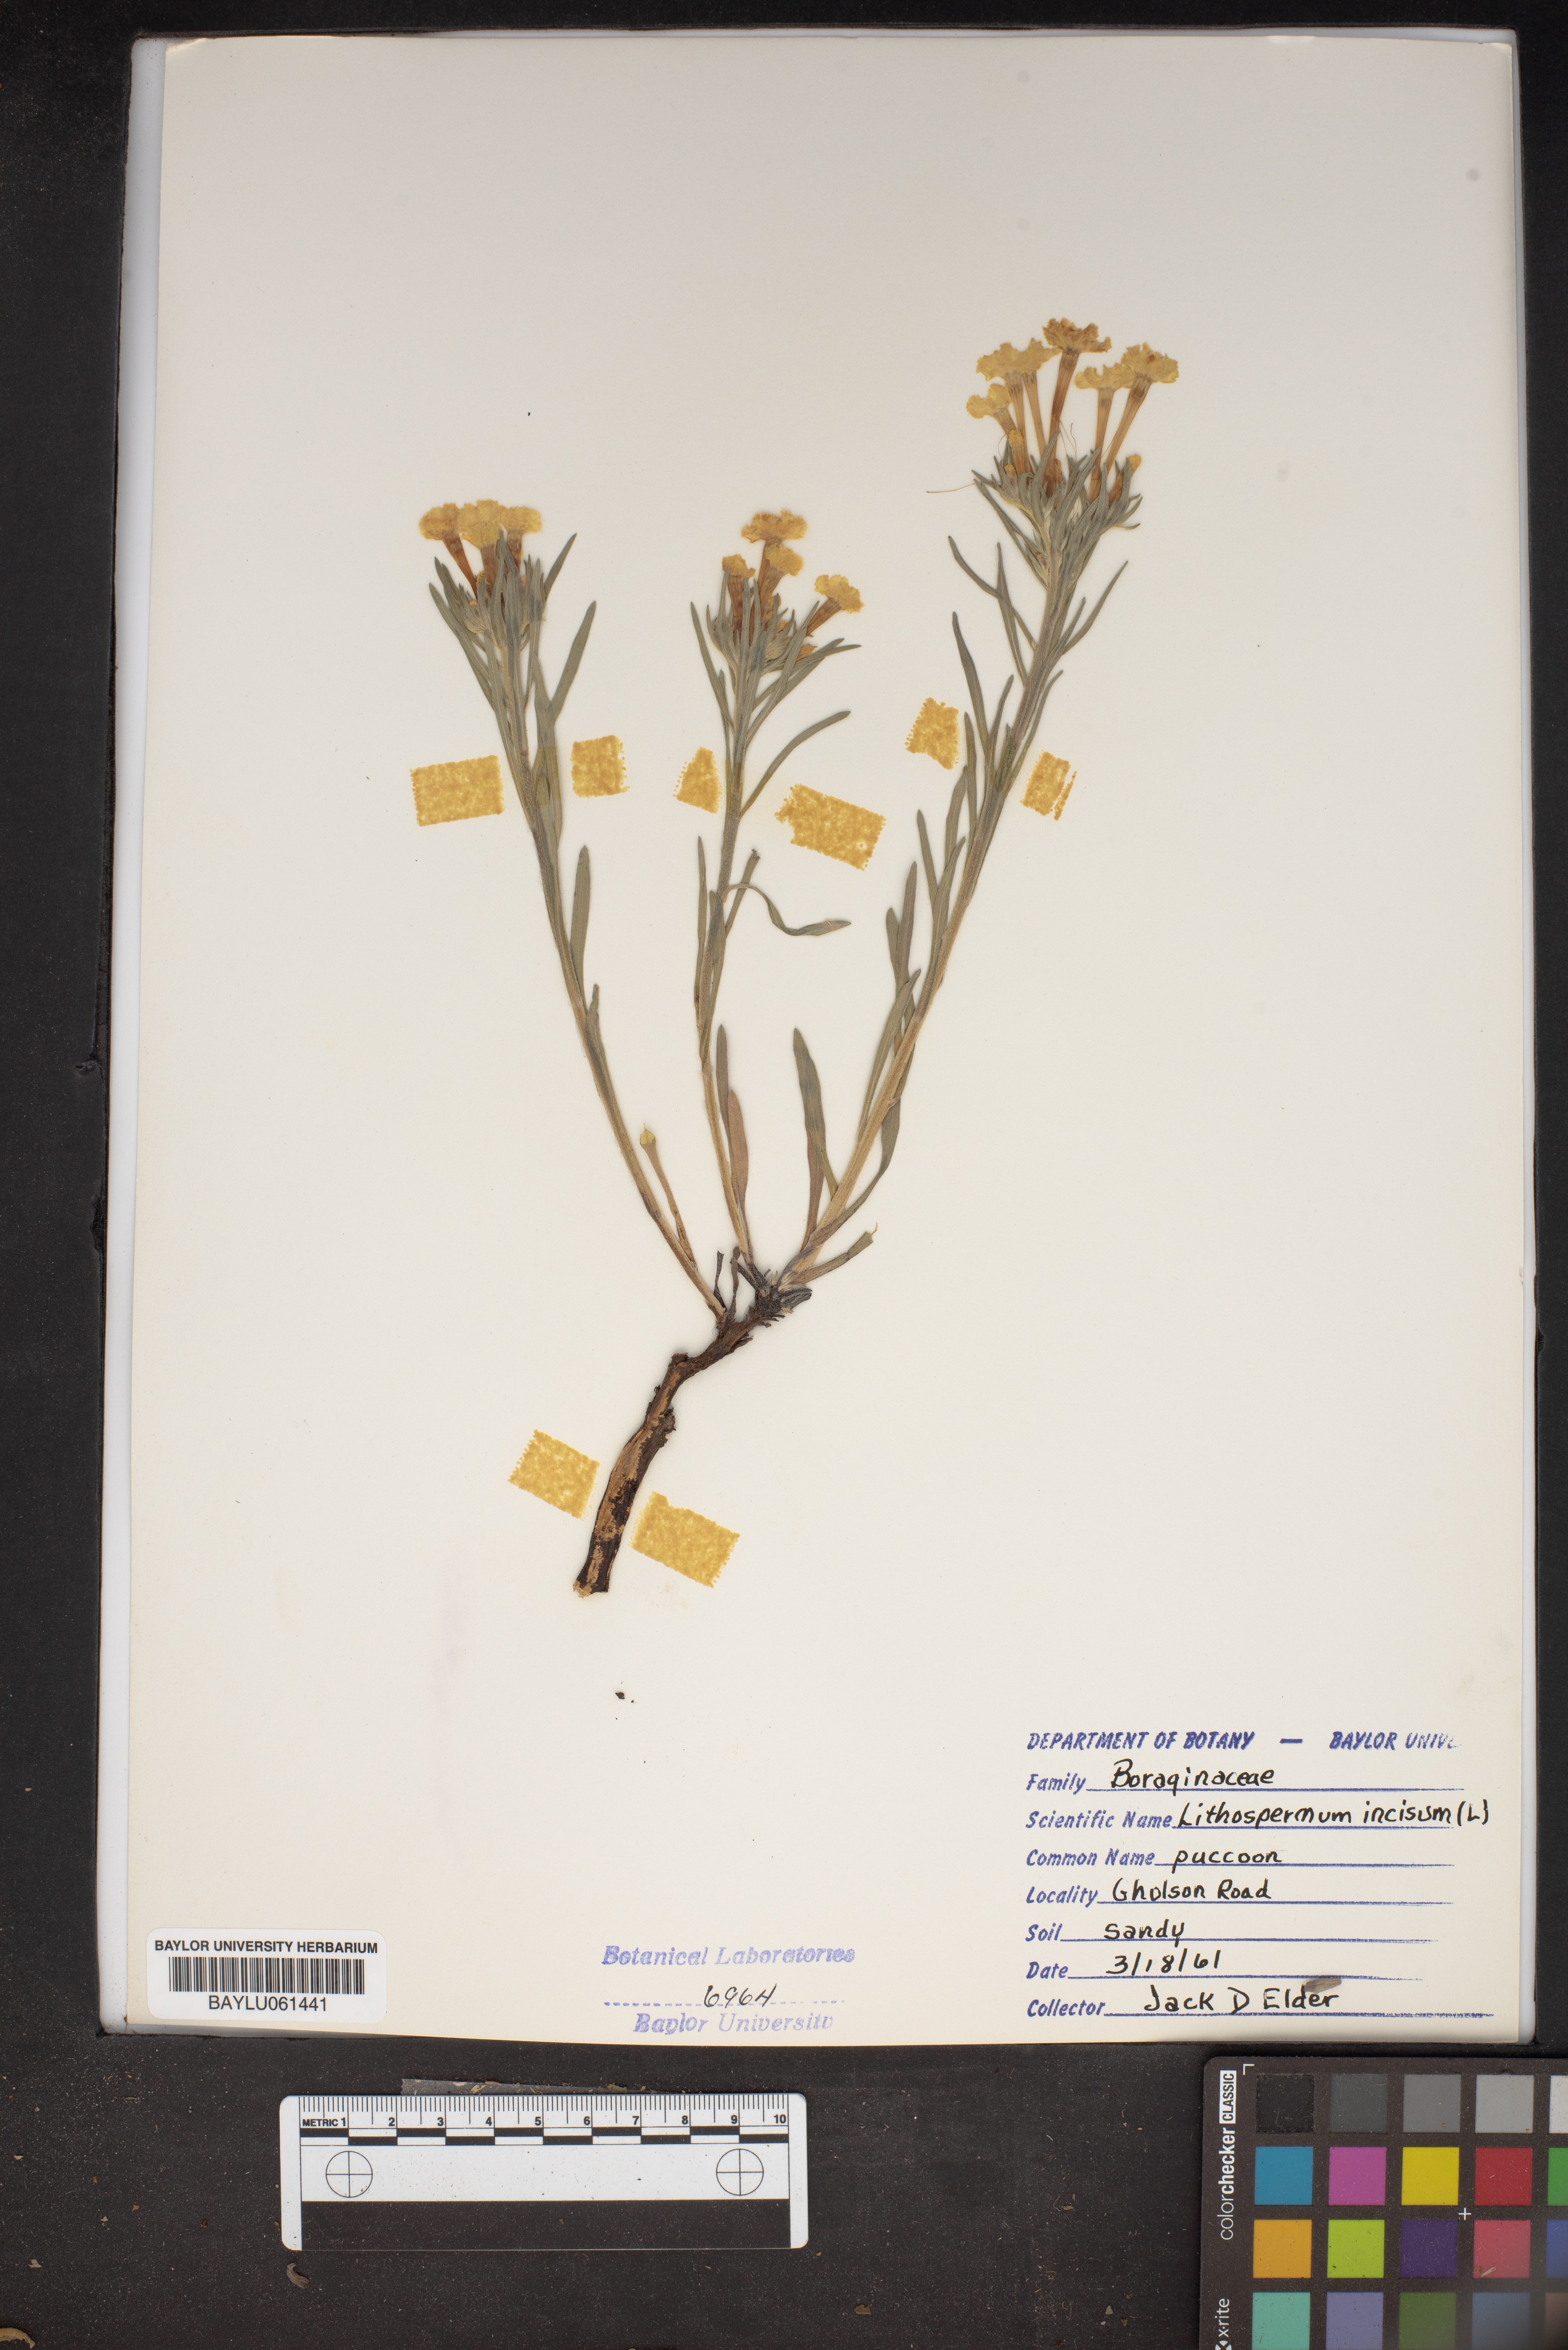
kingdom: Plantae
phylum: Tracheophyta
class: Magnoliopsida
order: Boraginales
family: Boraginaceae
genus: Lithospermum
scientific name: Lithospermum incisum
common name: Fringed gromwell
